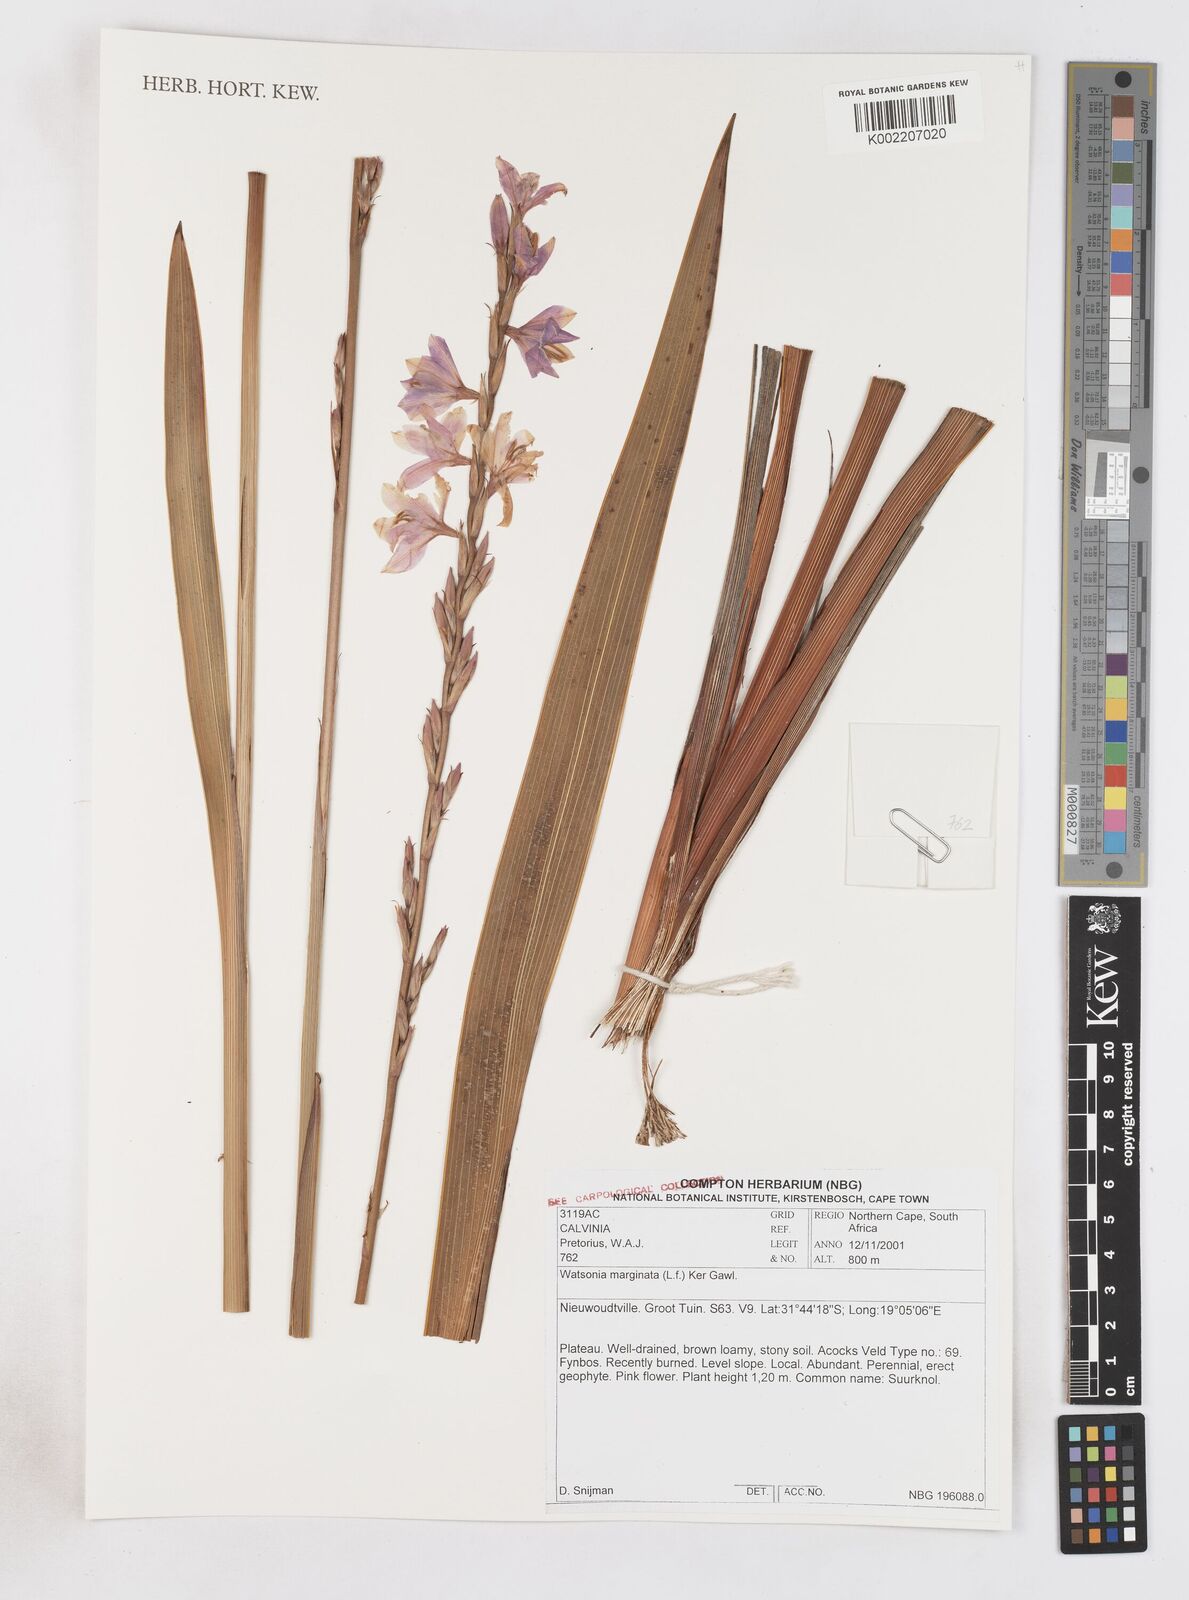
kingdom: Plantae
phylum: Tracheophyta
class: Liliopsida
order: Asparagales
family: Iridaceae
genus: Watsonia
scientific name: Watsonia marginata
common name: Fragrant bugle-lily
